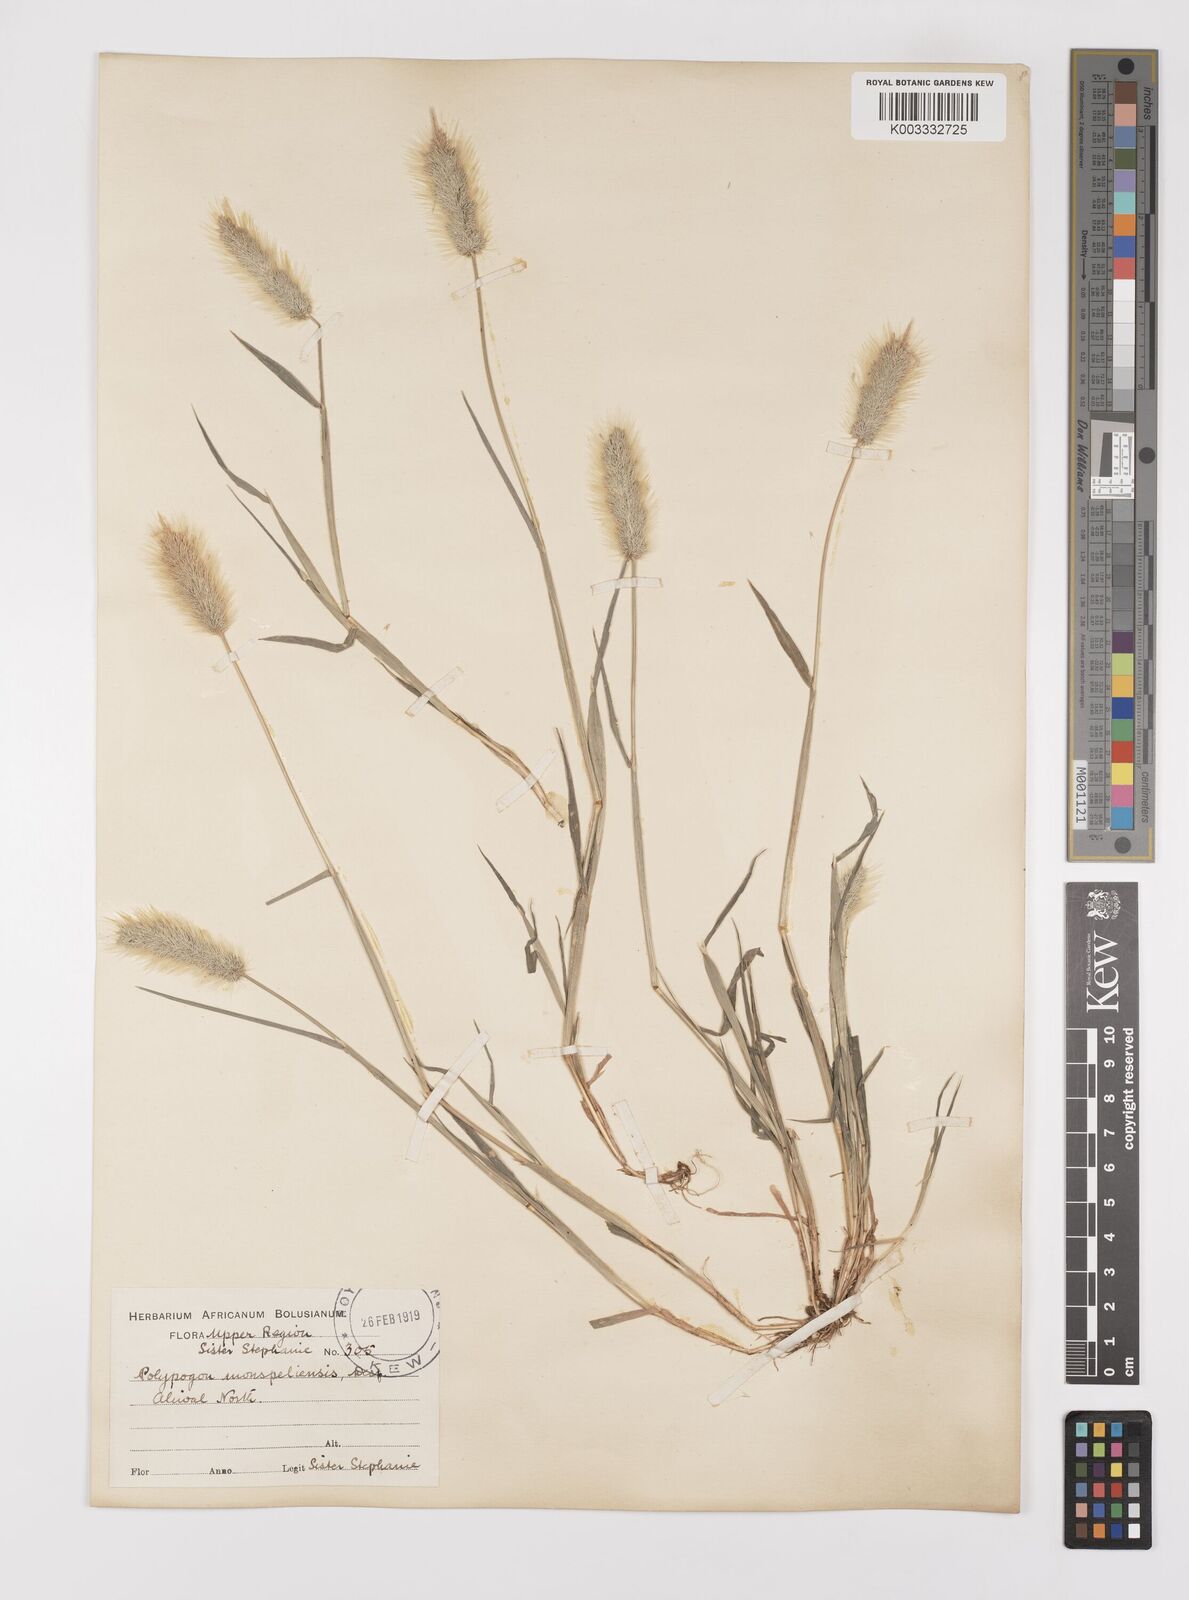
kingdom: Plantae
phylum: Tracheophyta
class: Liliopsida
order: Poales
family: Poaceae
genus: Polypogon
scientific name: Polypogon monspeliensis
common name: Annual rabbitsfoot grass
